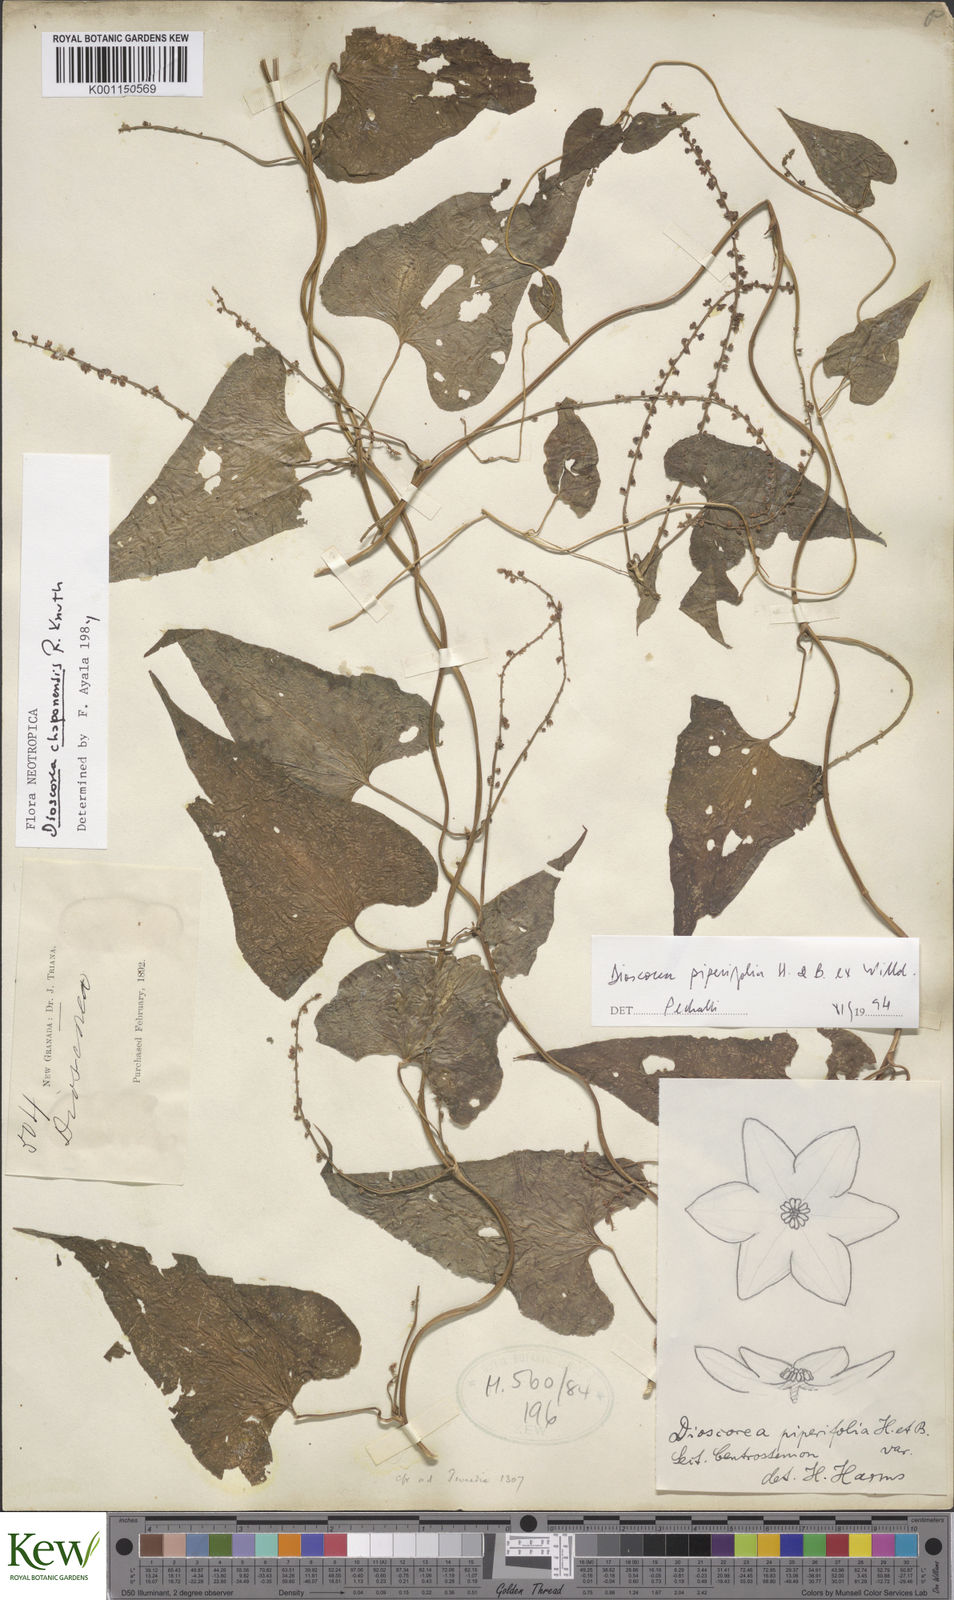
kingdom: Plantae
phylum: Tracheophyta
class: Liliopsida
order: Dioscoreales
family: Dioscoreaceae
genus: Dioscorea
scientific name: Dioscorea piperifolia
